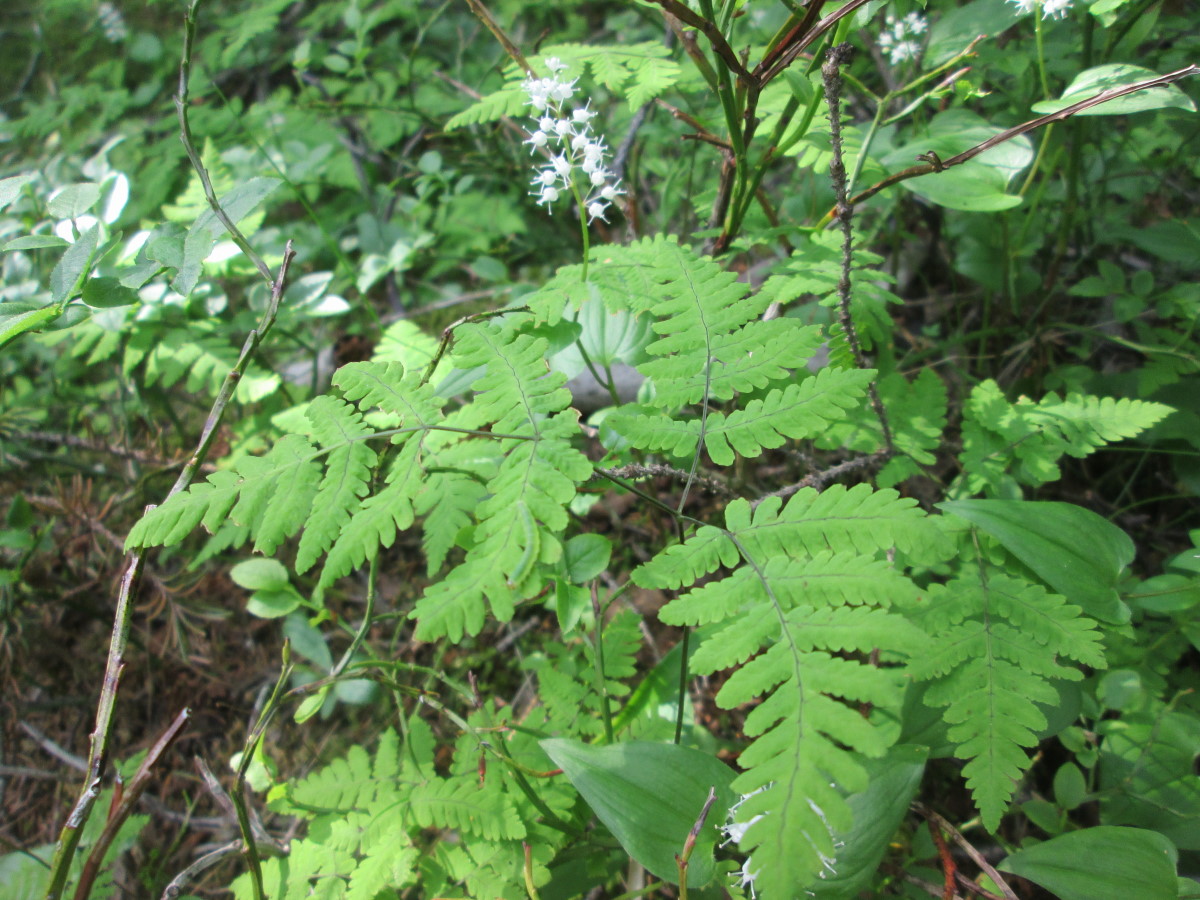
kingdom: Plantae
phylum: Tracheophyta
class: Polypodiopsida
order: Polypodiales
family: Cystopteridaceae
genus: Gymnocarpium
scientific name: Gymnocarpium dryopteris
